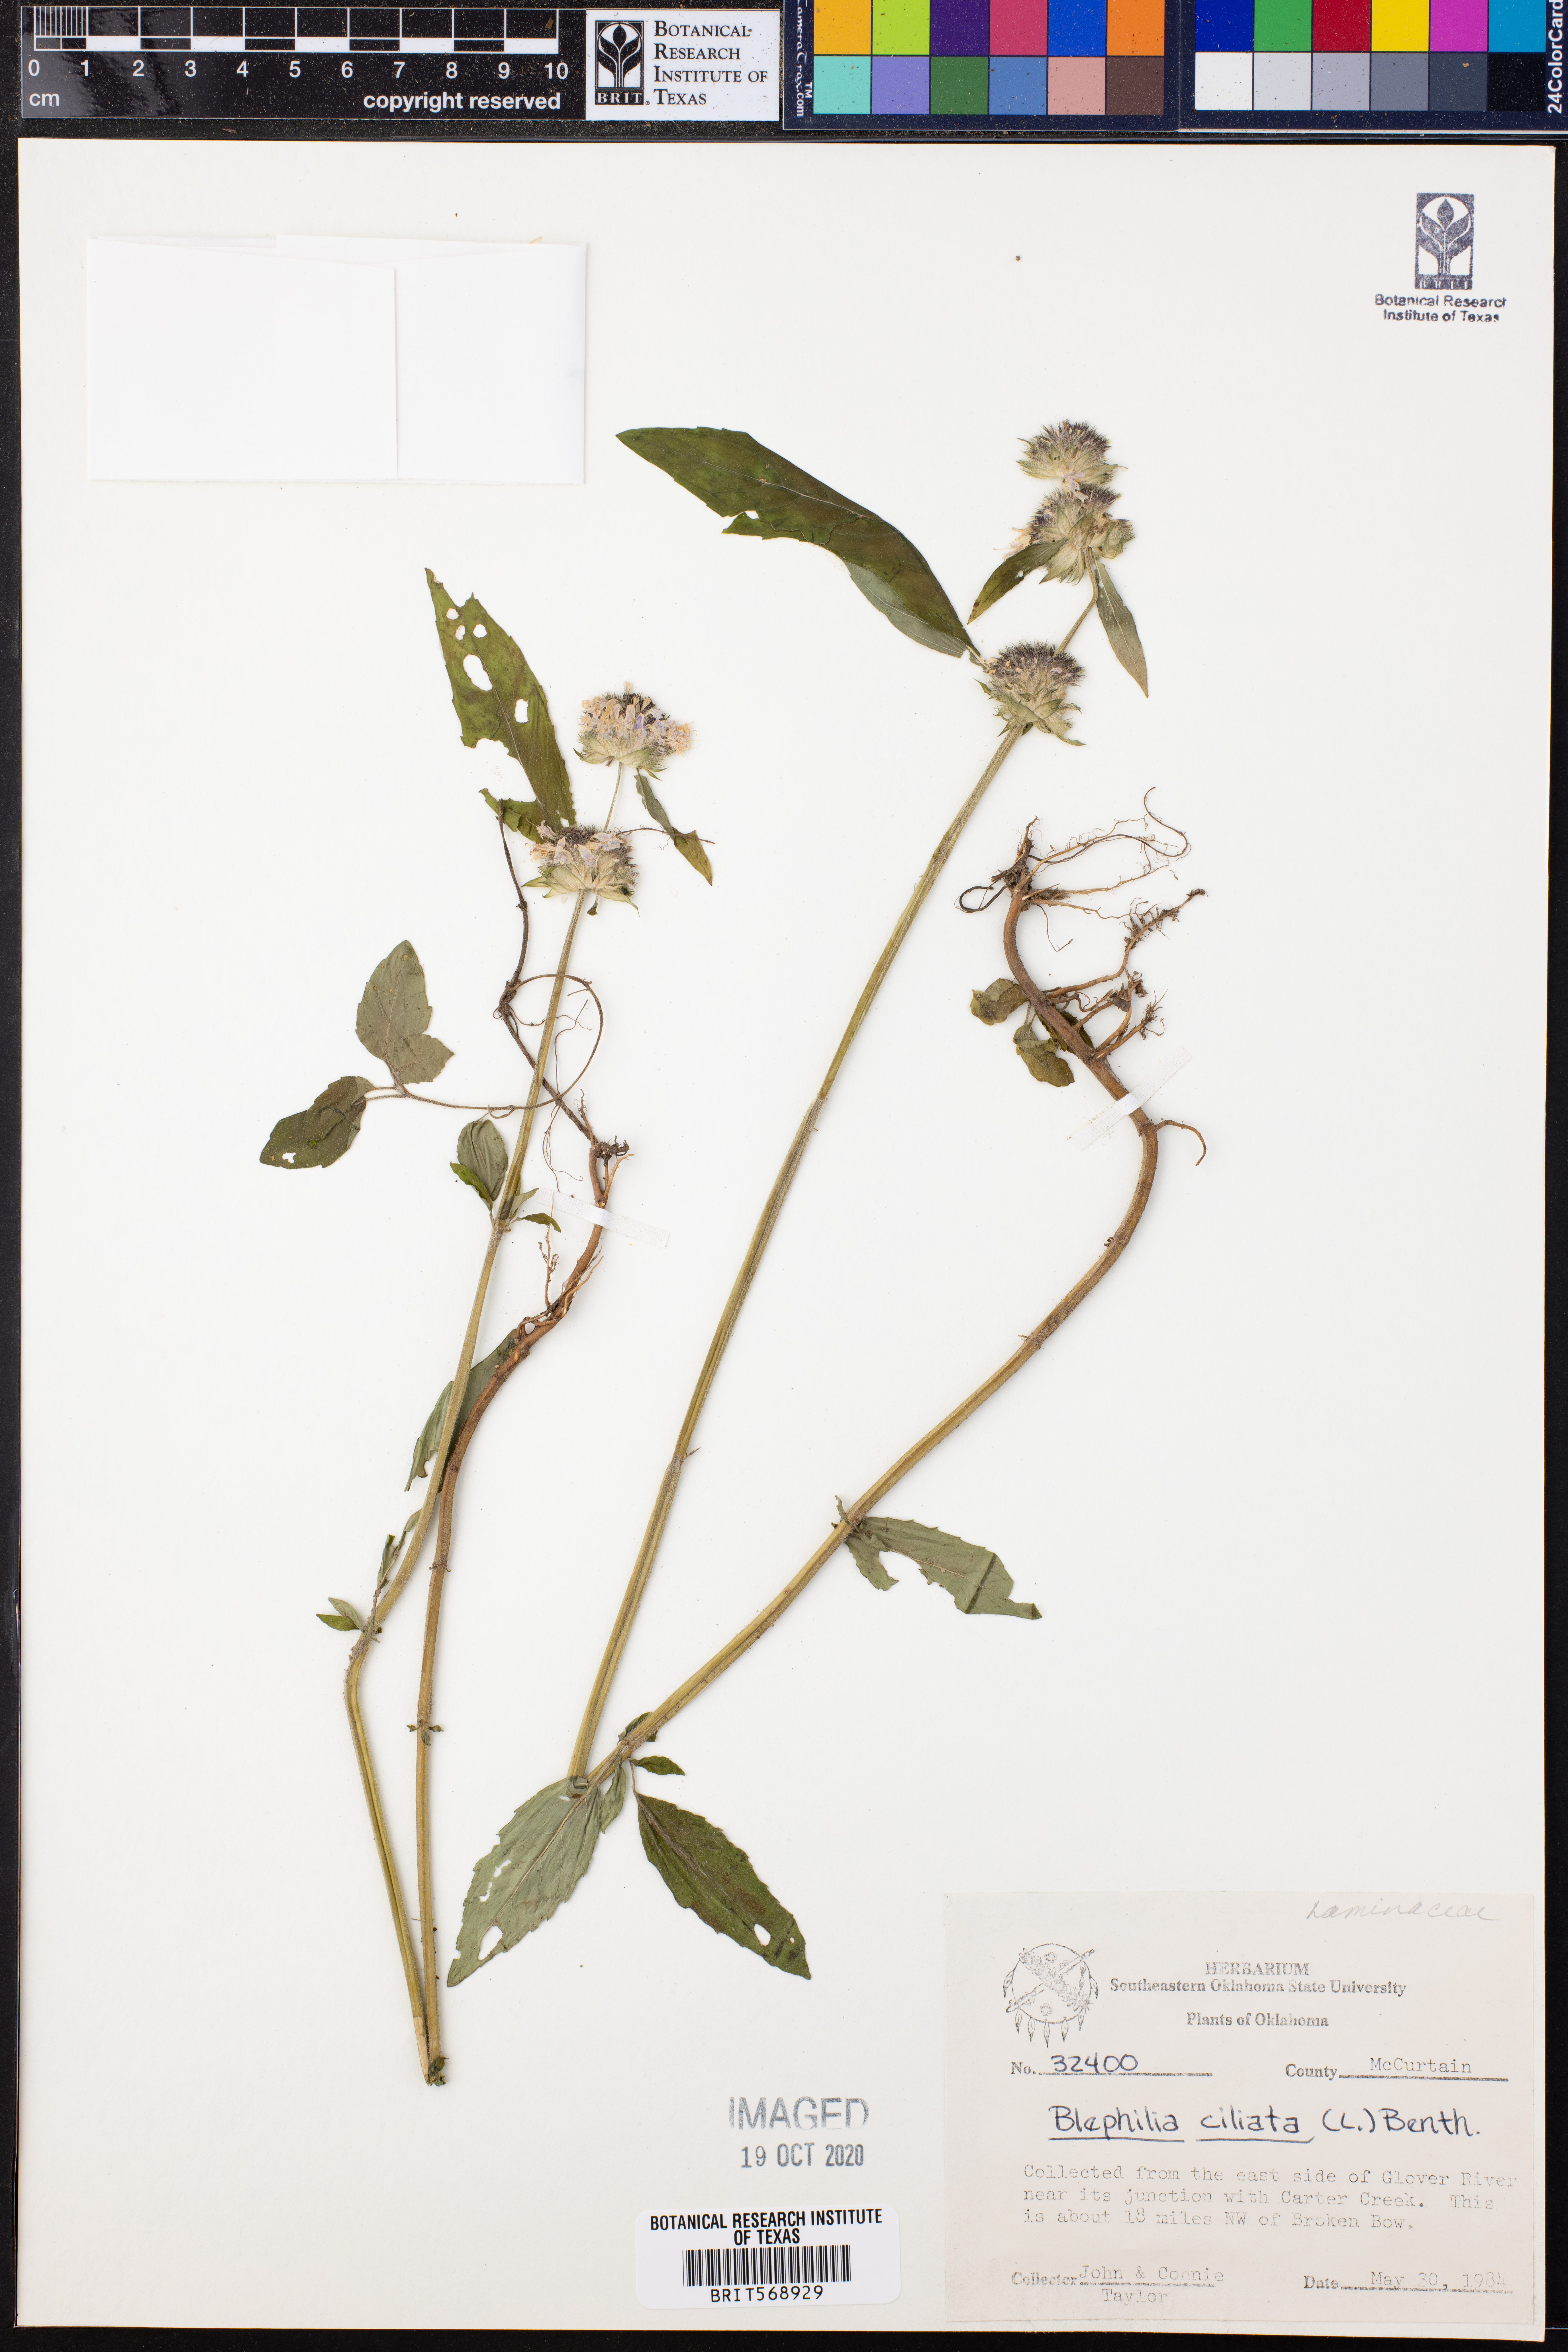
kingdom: Plantae
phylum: Tracheophyta
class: Magnoliopsida
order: Lamiales
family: Lamiaceae
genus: Blephilia
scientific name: Blephilia ciliata
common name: Downy blephilia
